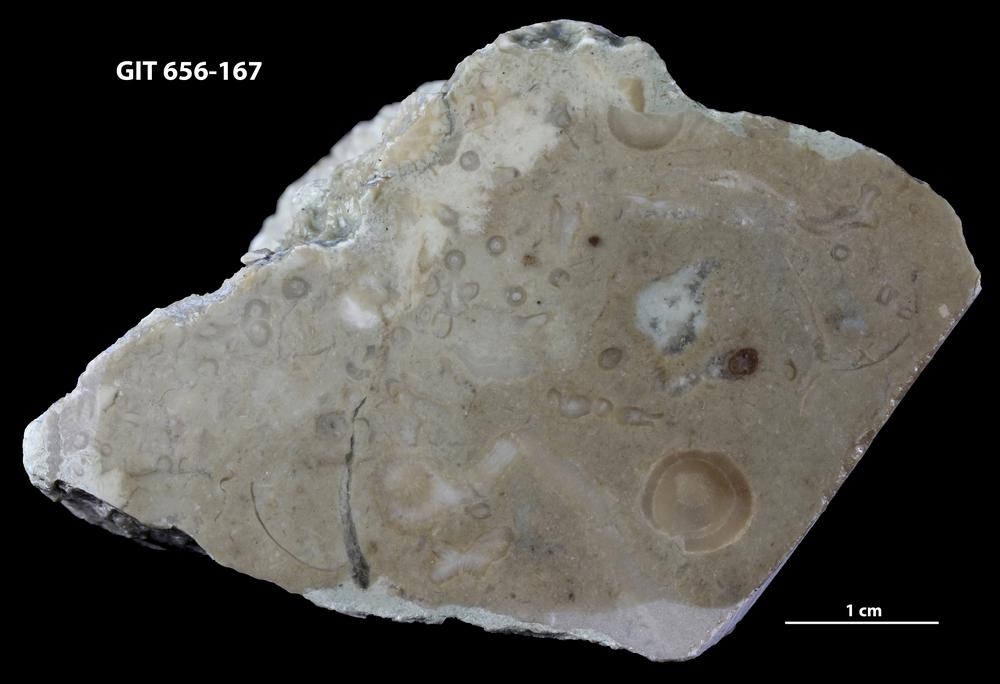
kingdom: Animalia
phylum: Porifera
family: Syringostromellidae
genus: Syringostromella
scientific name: Syringostromella
